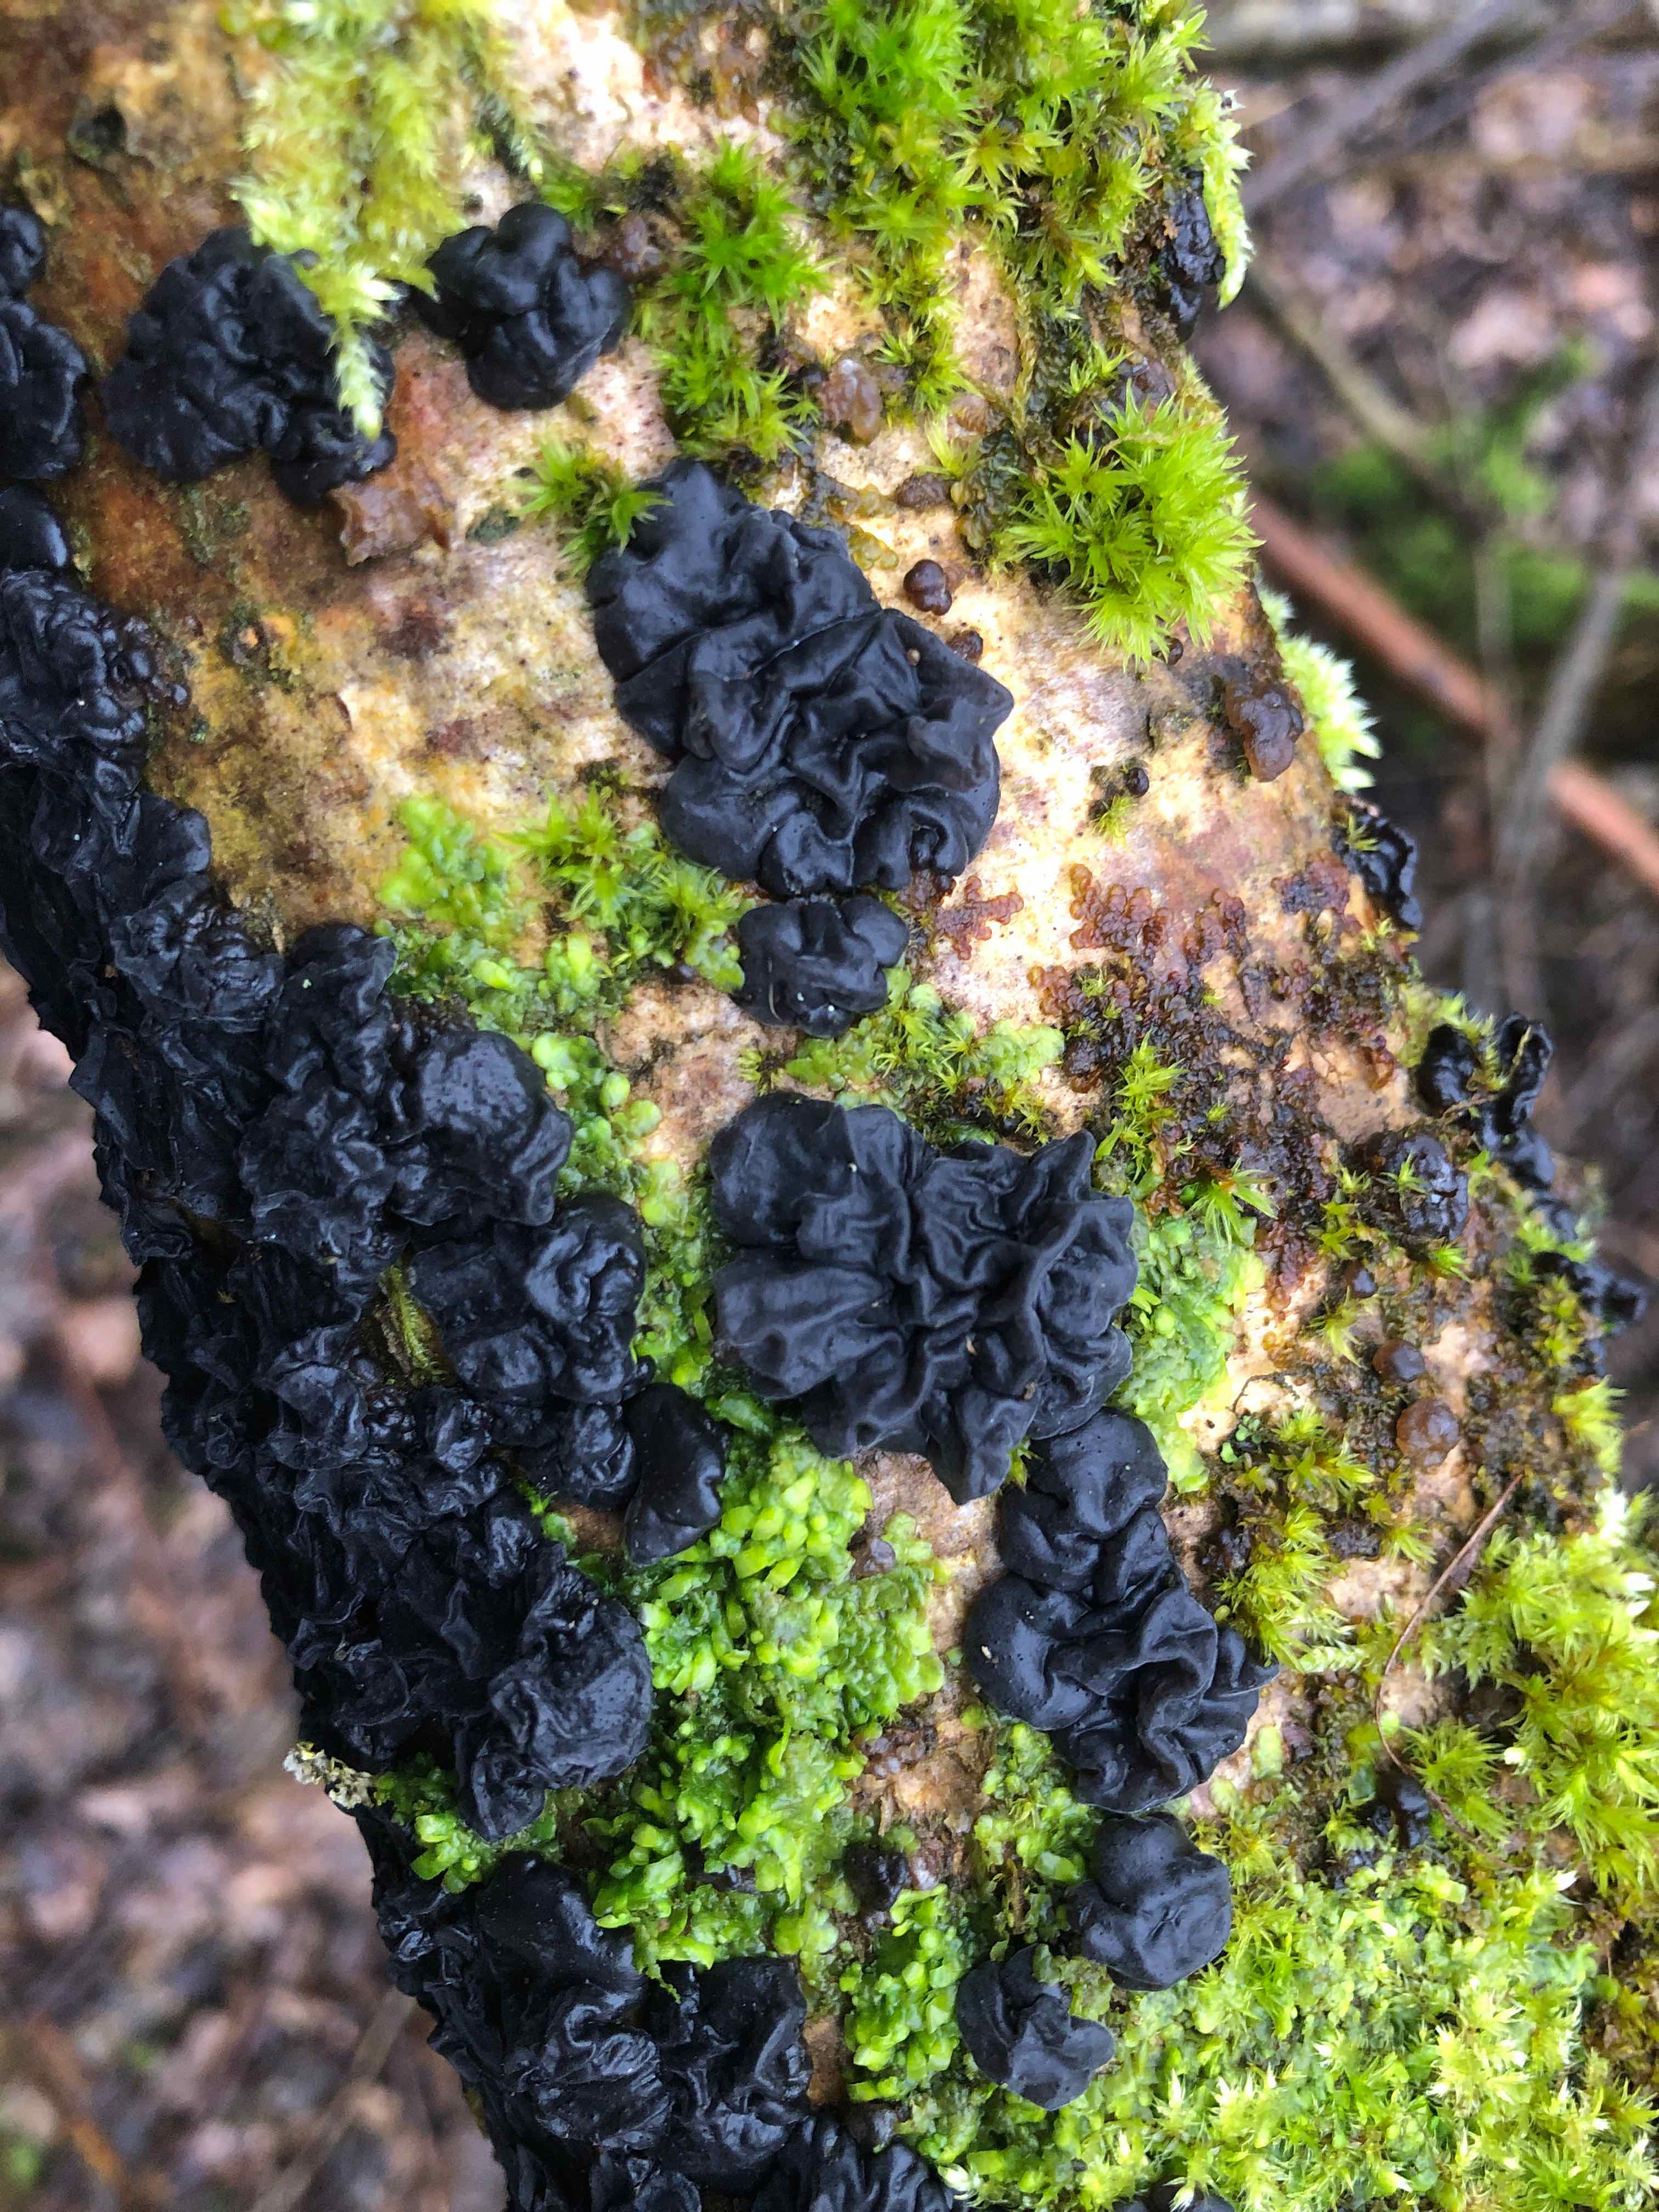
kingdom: Fungi
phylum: Basidiomycota
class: Agaricomycetes
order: Auriculariales
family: Auriculariaceae
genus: Exidia
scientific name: Exidia nigricans
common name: almindelig bævretop
